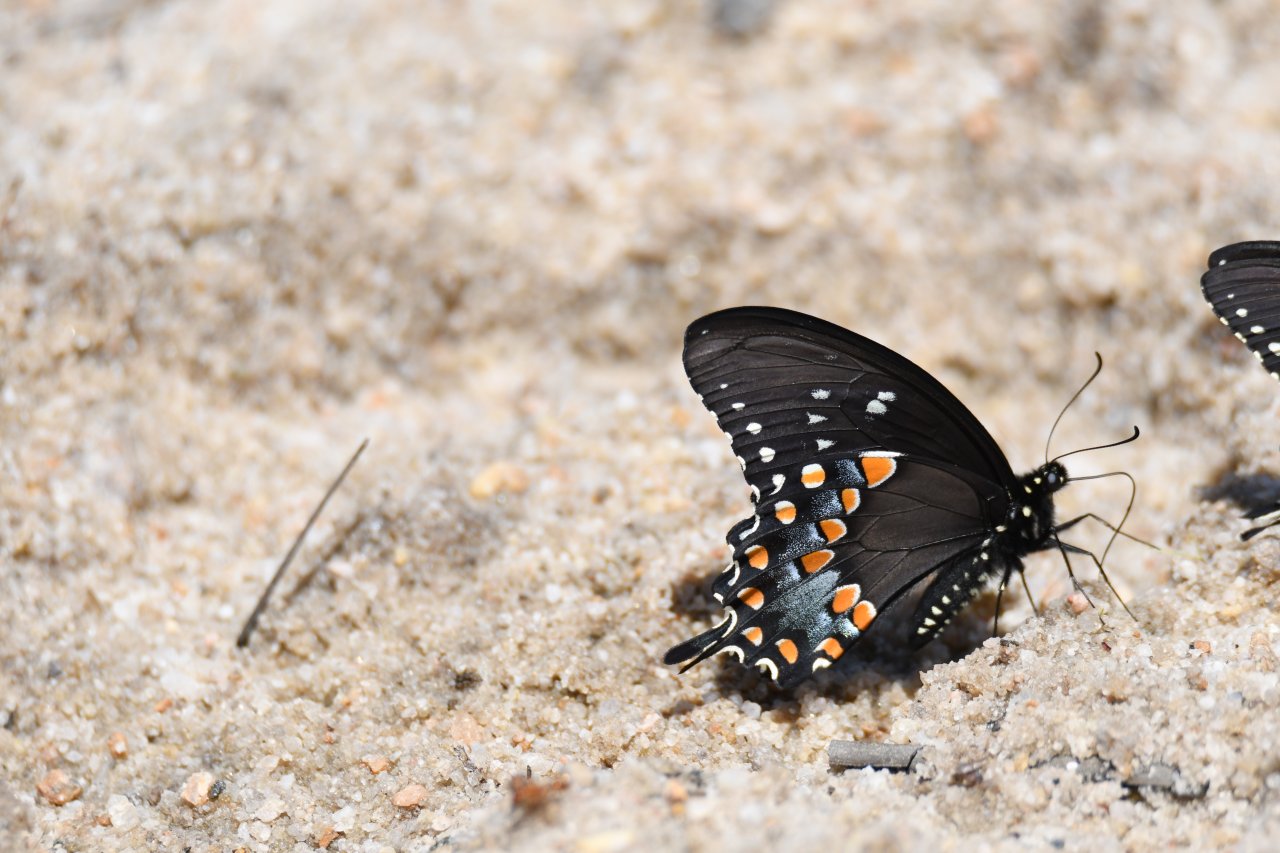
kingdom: Animalia
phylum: Arthropoda
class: Insecta
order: Lepidoptera
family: Papilionidae
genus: Pterourus
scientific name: Pterourus troilus
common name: Spicebush Swallowtail
